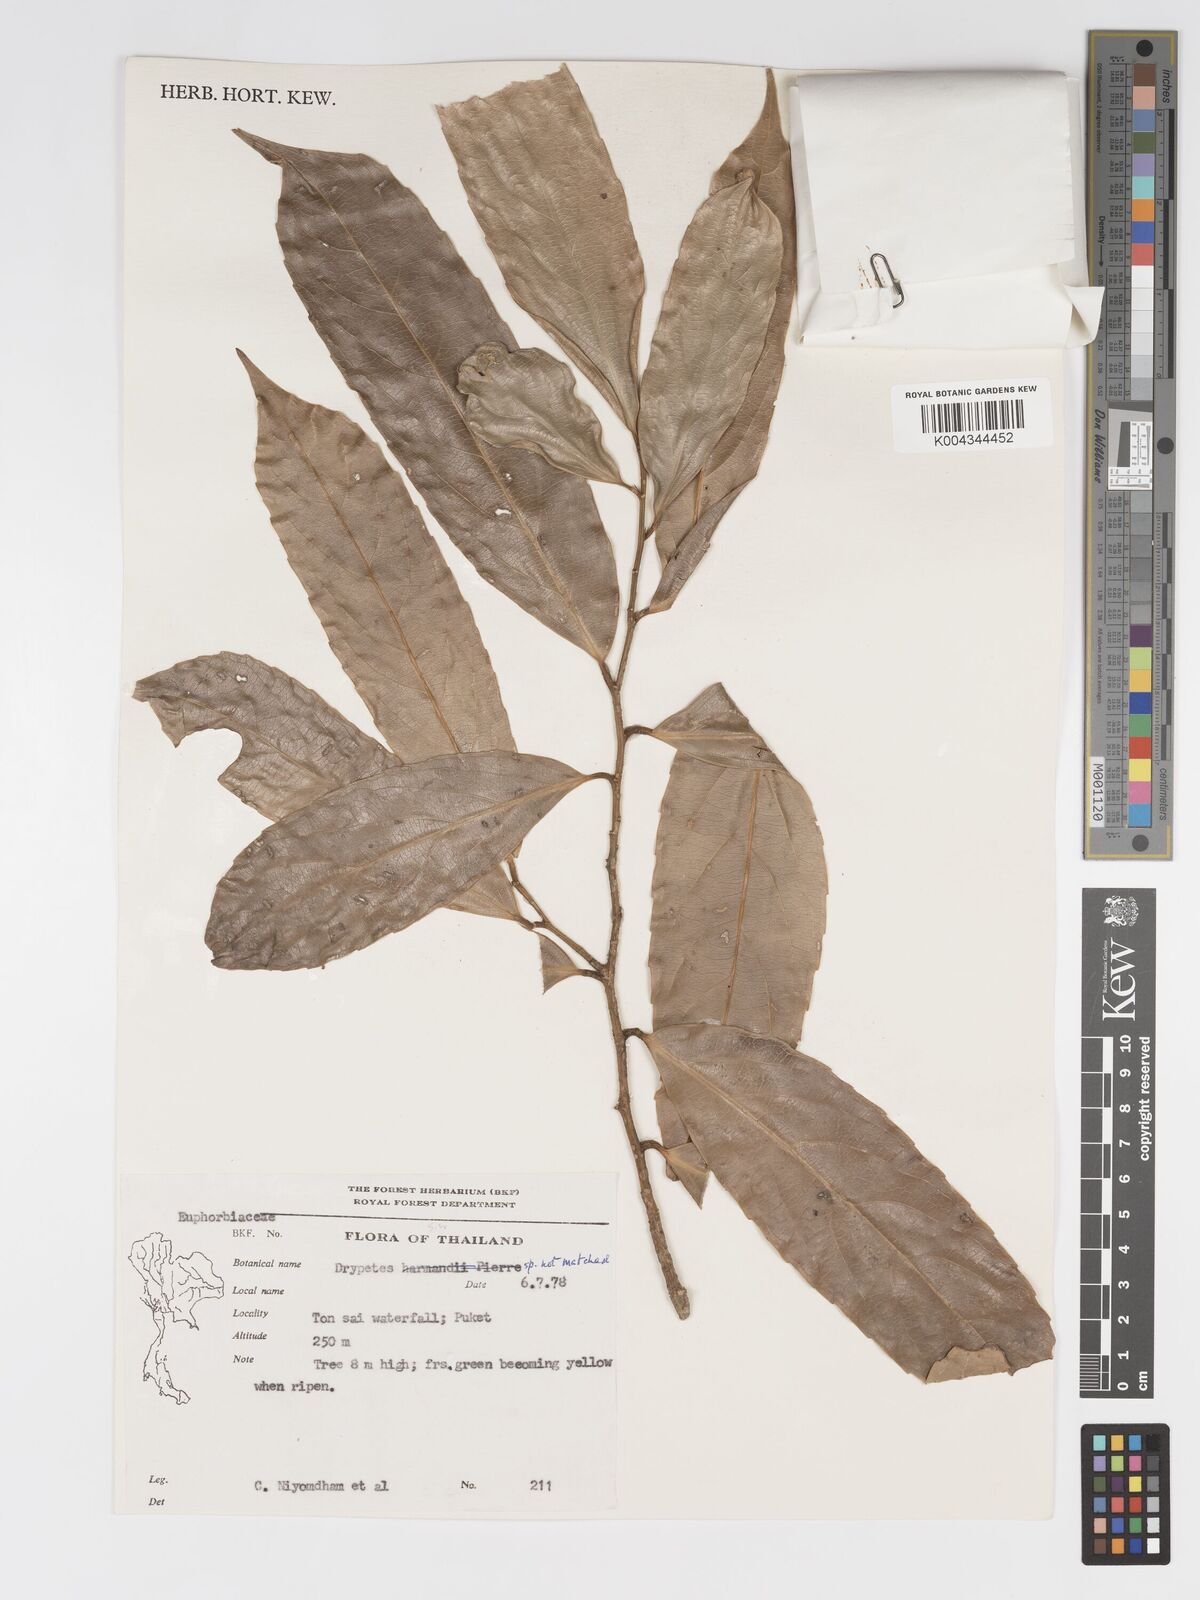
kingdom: Plantae
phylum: Tracheophyta
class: Magnoliopsida
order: Malpighiales
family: Putranjivaceae
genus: Drypetes
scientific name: Drypetes
